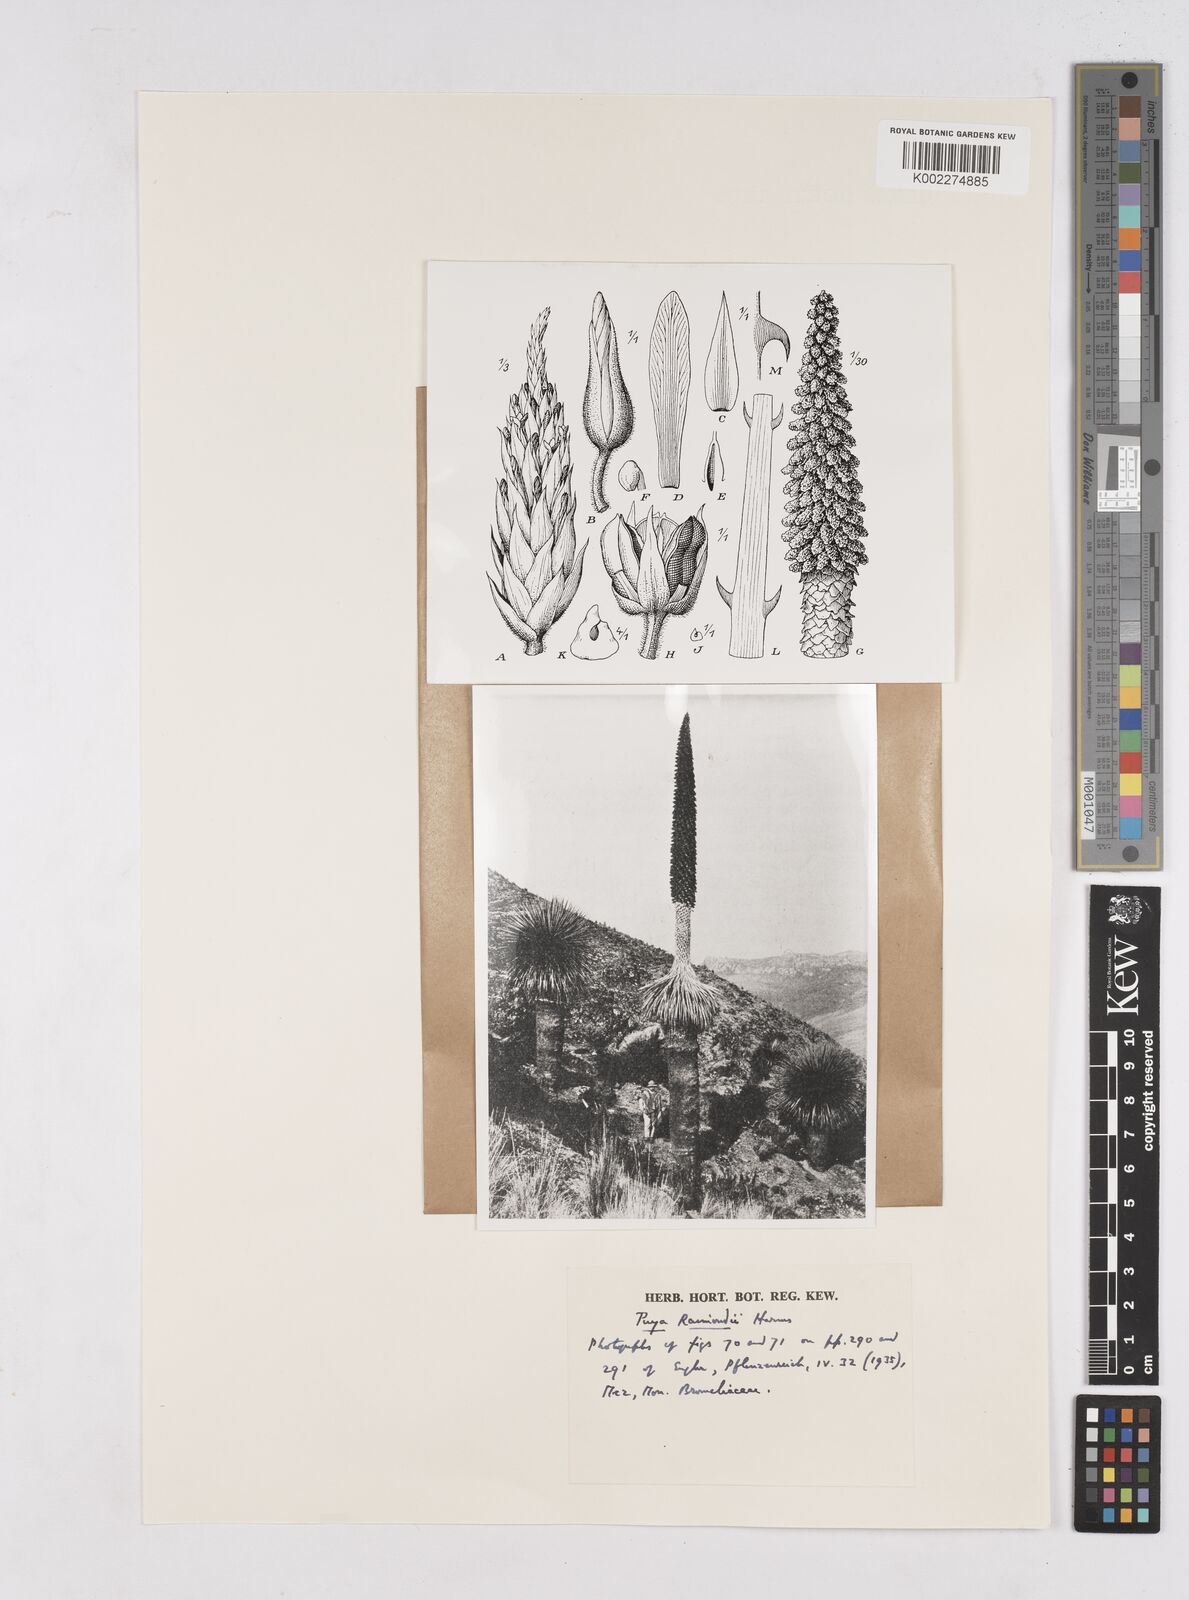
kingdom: Plantae
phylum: Tracheophyta
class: Liliopsida
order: Poales
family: Bromeliaceae
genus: Puya
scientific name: Puya raimondii
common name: Queen of the andes
